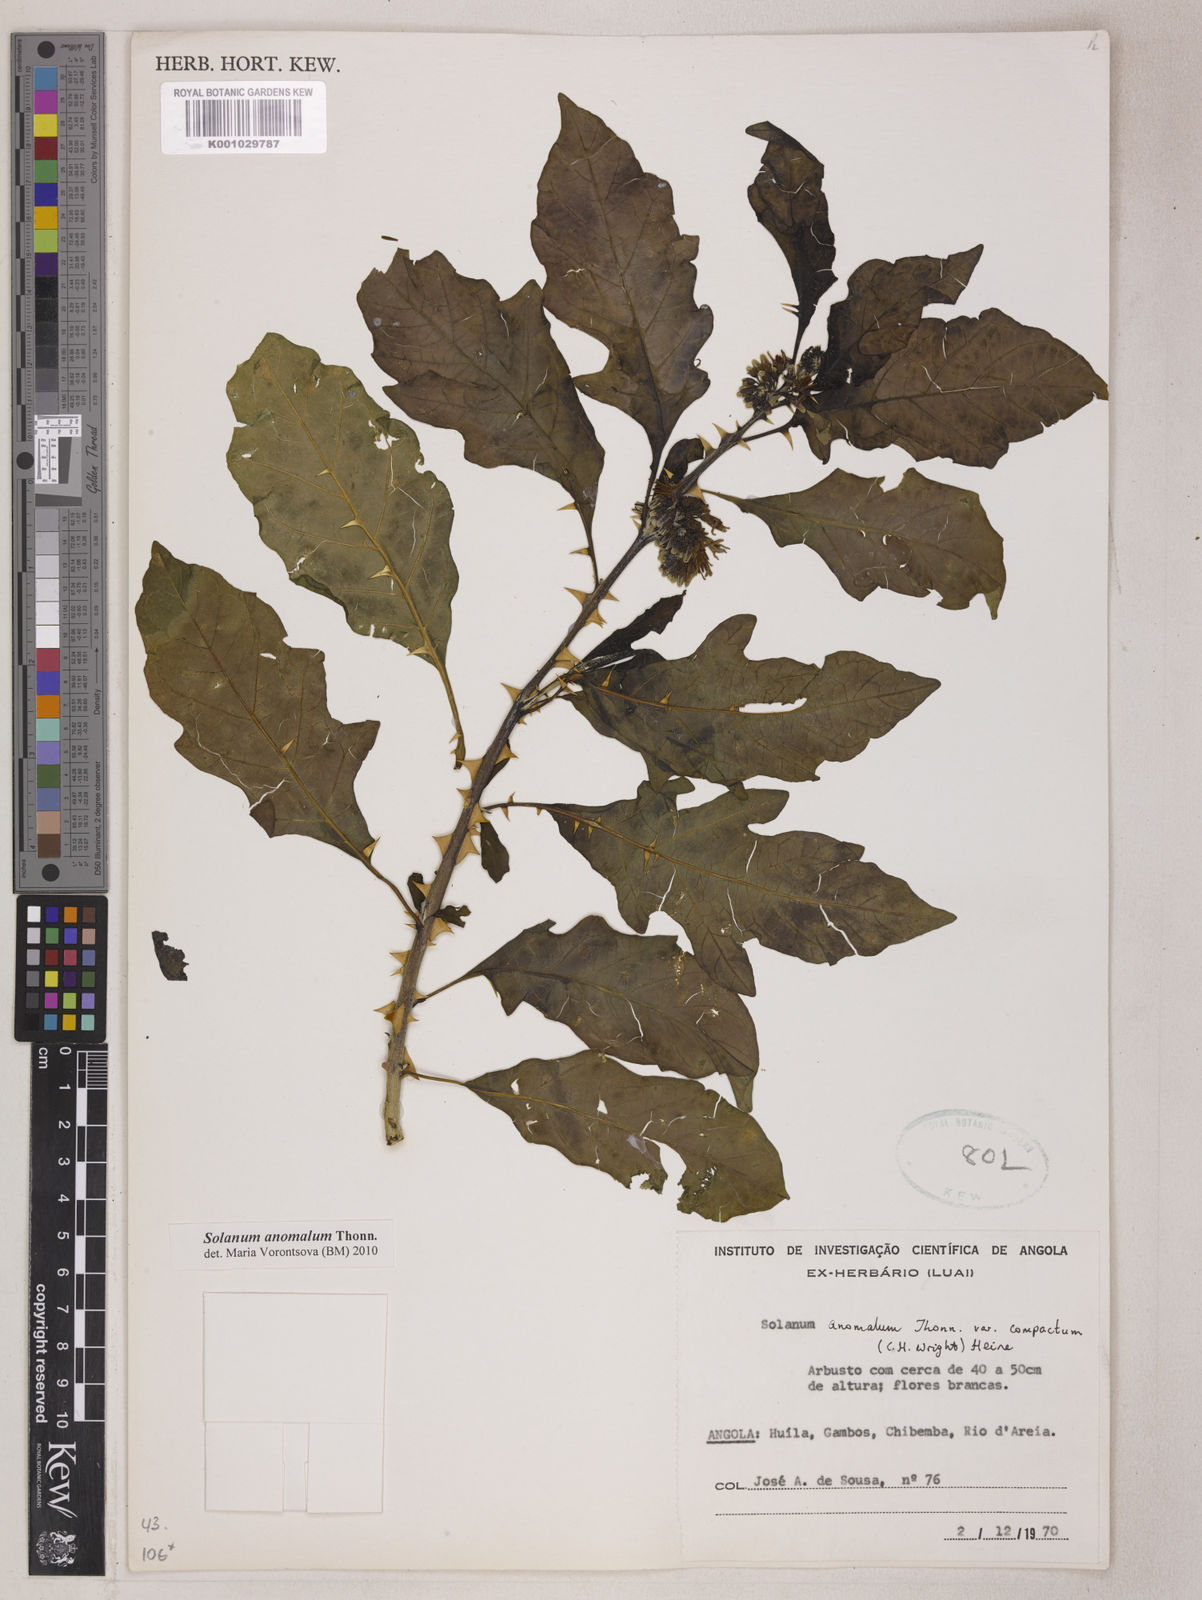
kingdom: Plantae
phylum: Tracheophyta
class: Magnoliopsida
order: Solanales
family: Solanaceae
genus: Solanum
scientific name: Solanum anomalum
